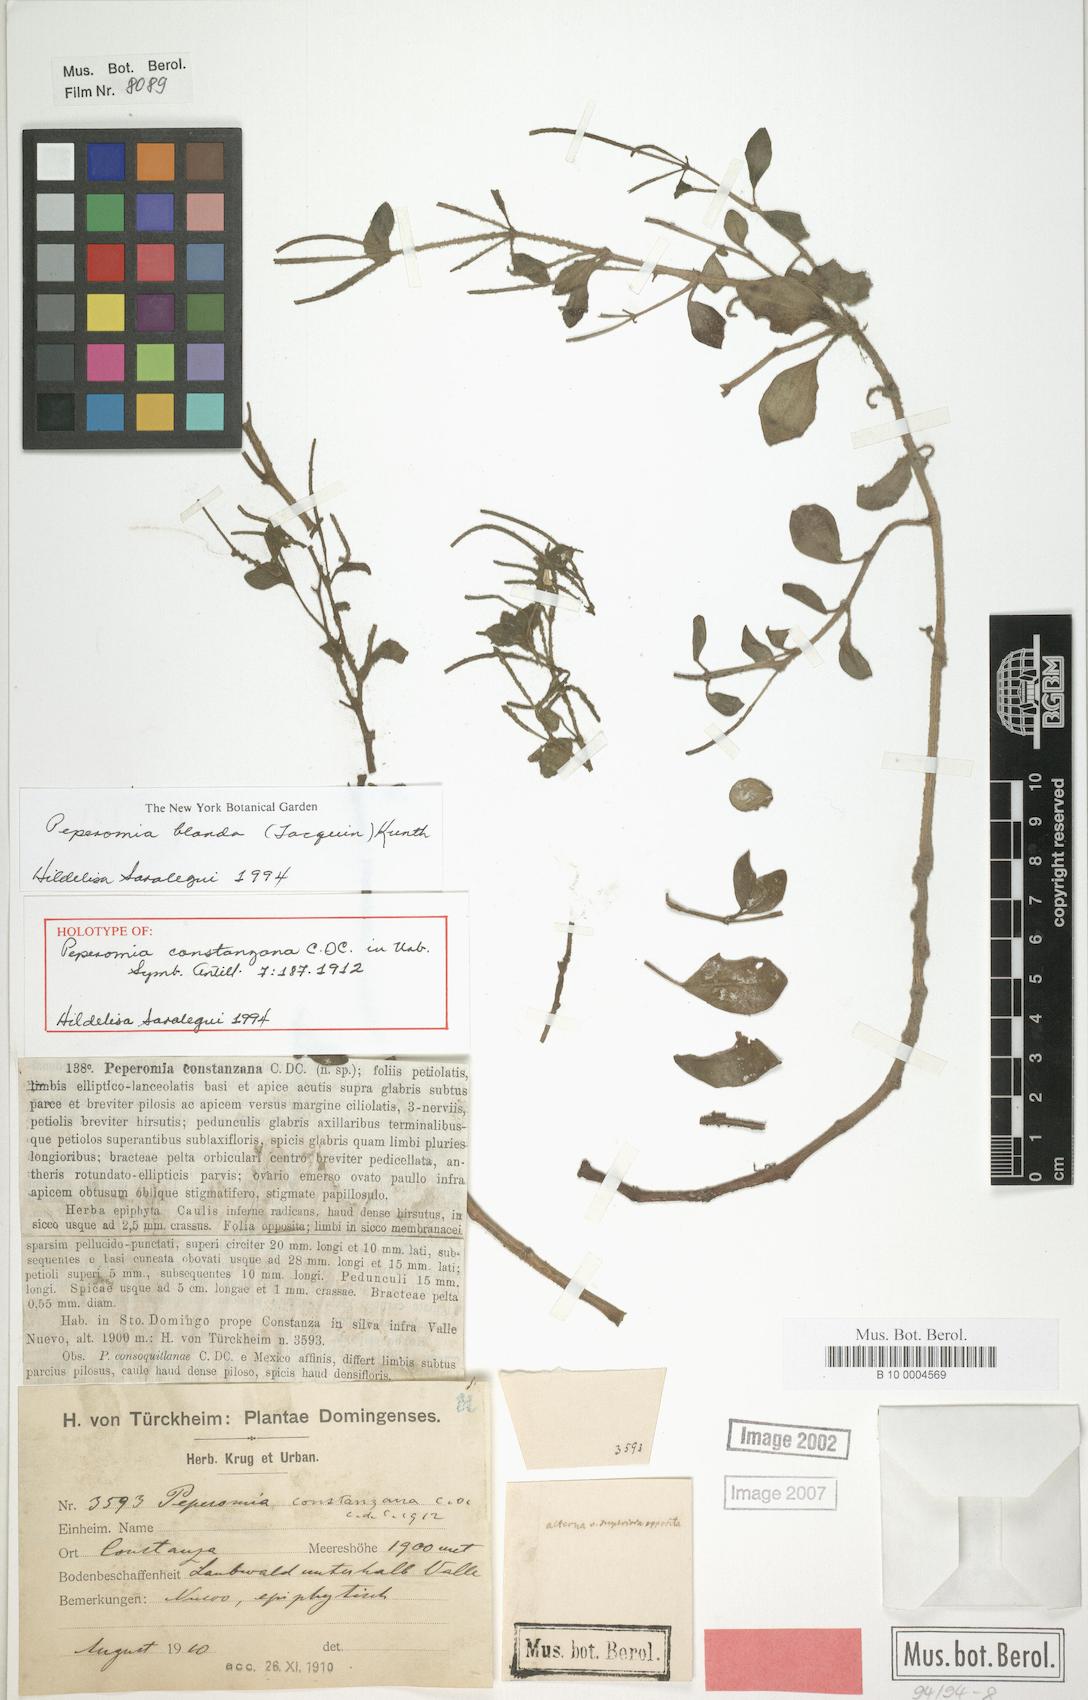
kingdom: Plantae
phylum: Tracheophyta
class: Magnoliopsida
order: Piperales
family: Piperaceae
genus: Peperomia
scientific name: Peperomia blanda
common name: Arid-land peperomia
